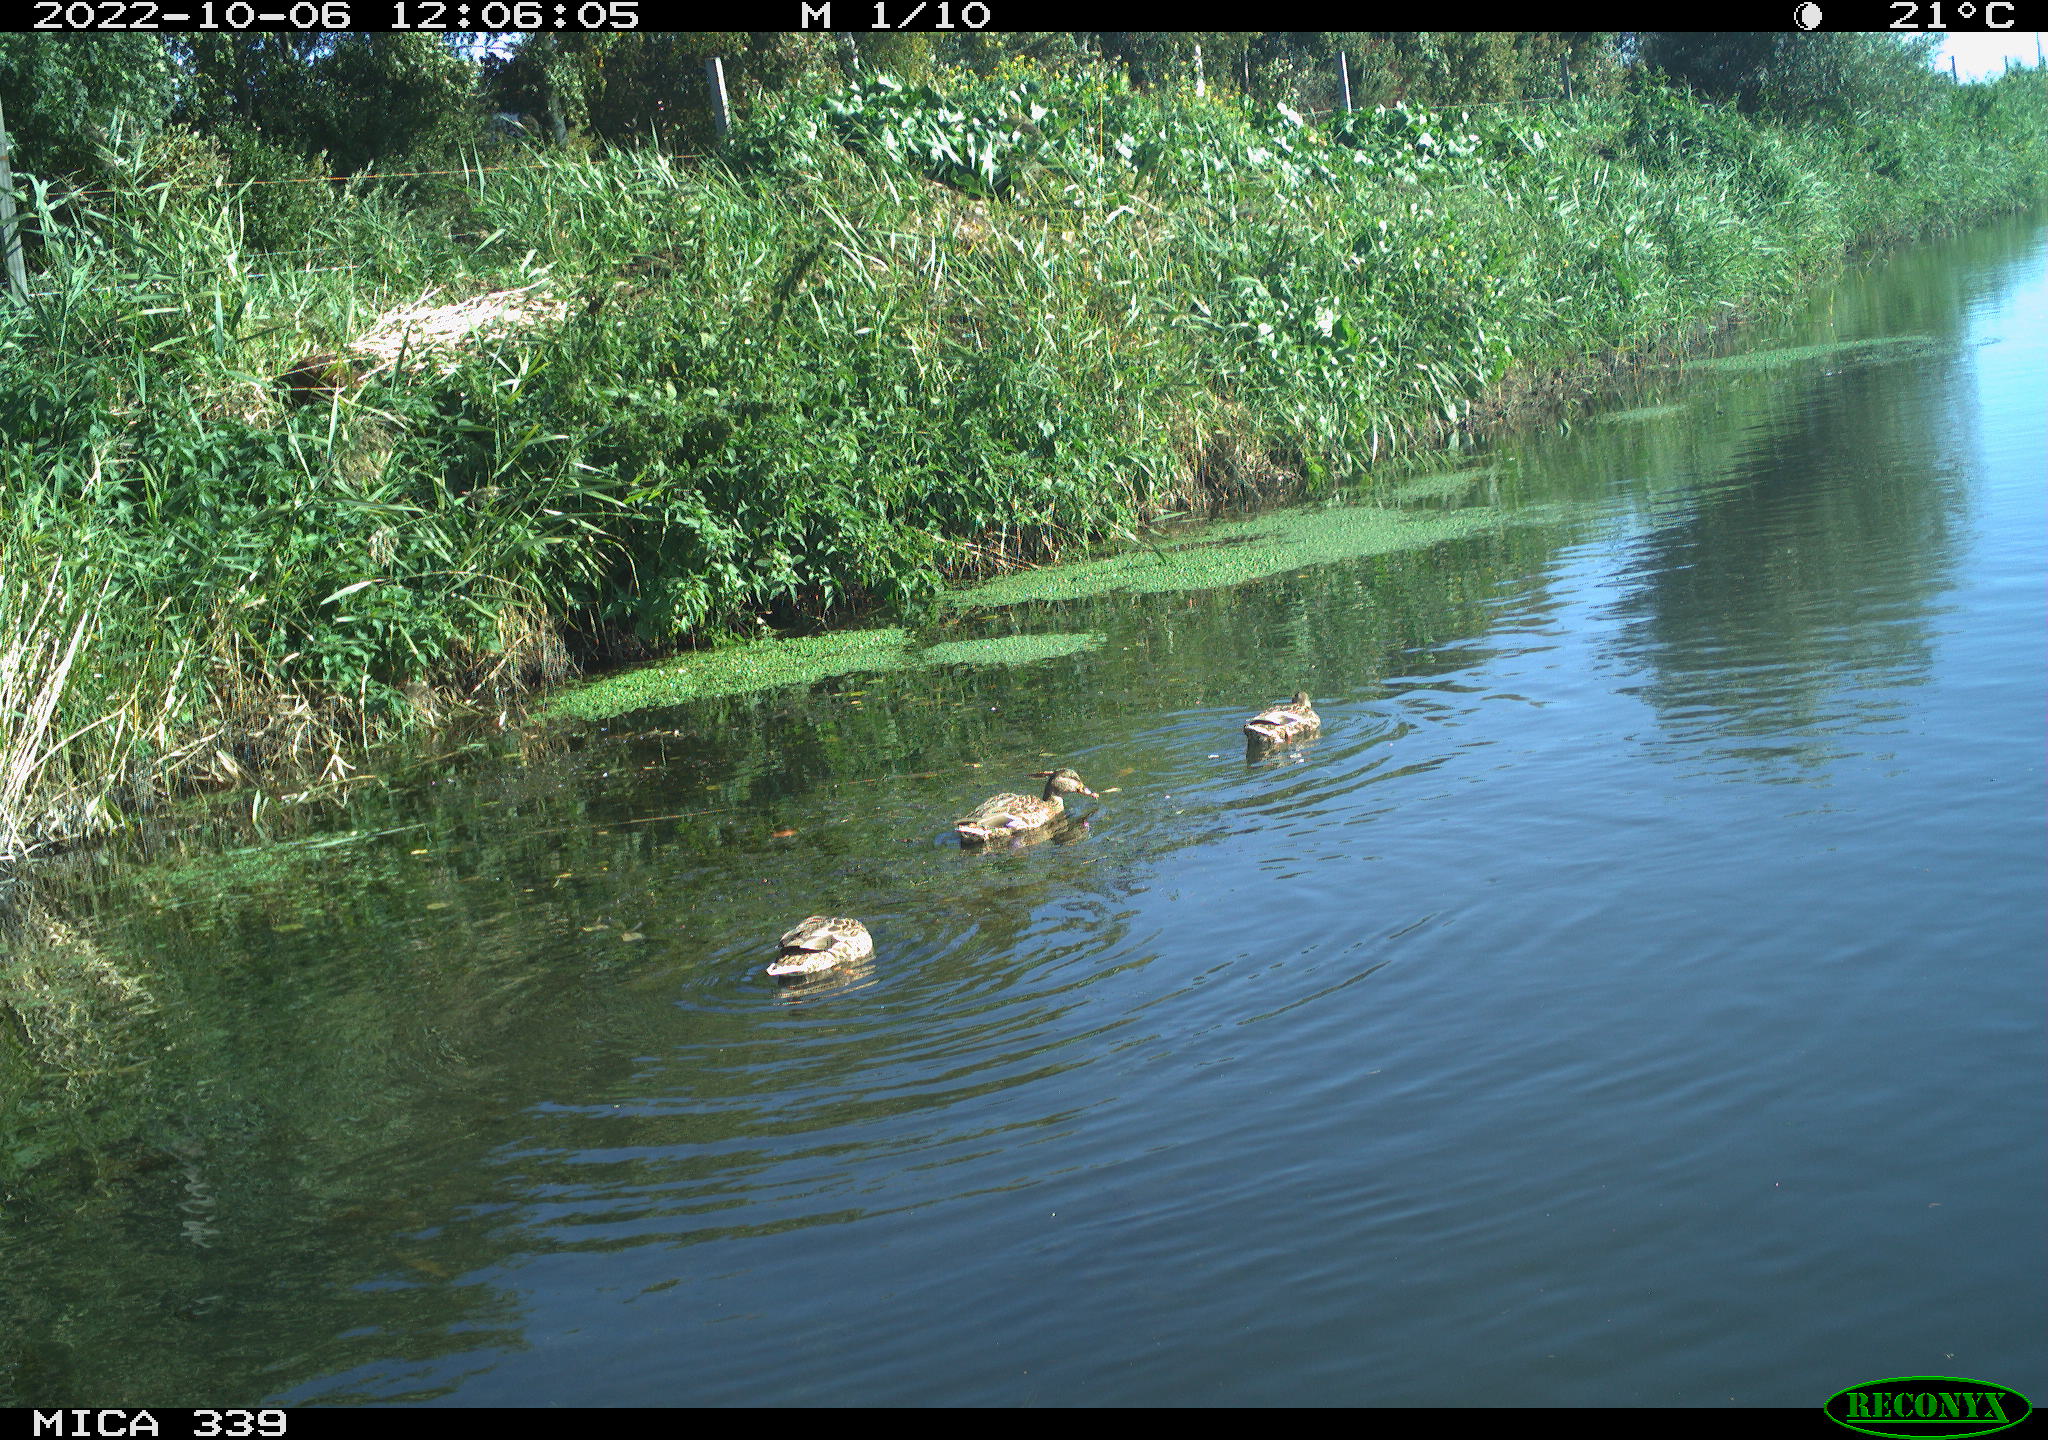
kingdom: Animalia
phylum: Chordata
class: Aves
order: Anseriformes
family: Anatidae
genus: Anas
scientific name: Anas platyrhynchos
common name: Mallard
